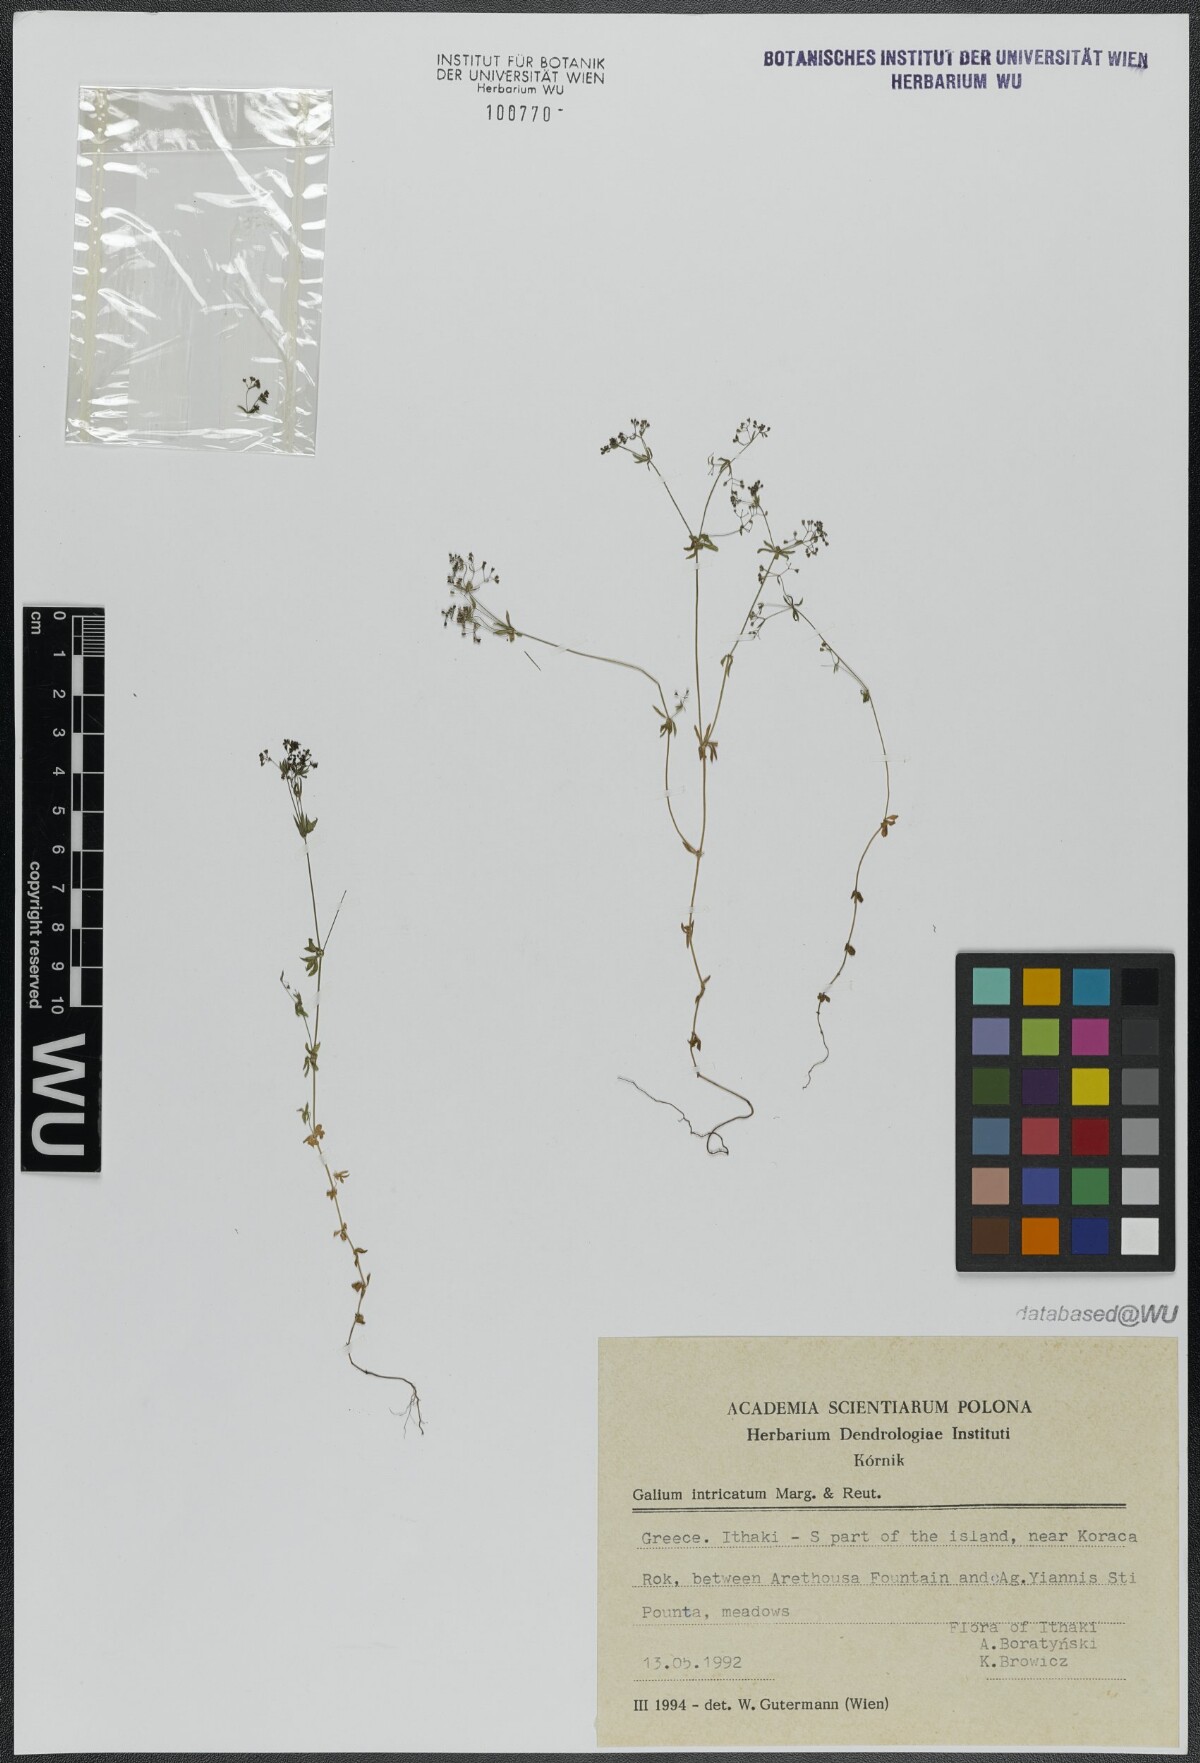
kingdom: Plantae
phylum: Tracheophyta
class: Magnoliopsida
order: Gentianales
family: Rubiaceae
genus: Galium
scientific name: Galium intricatum
